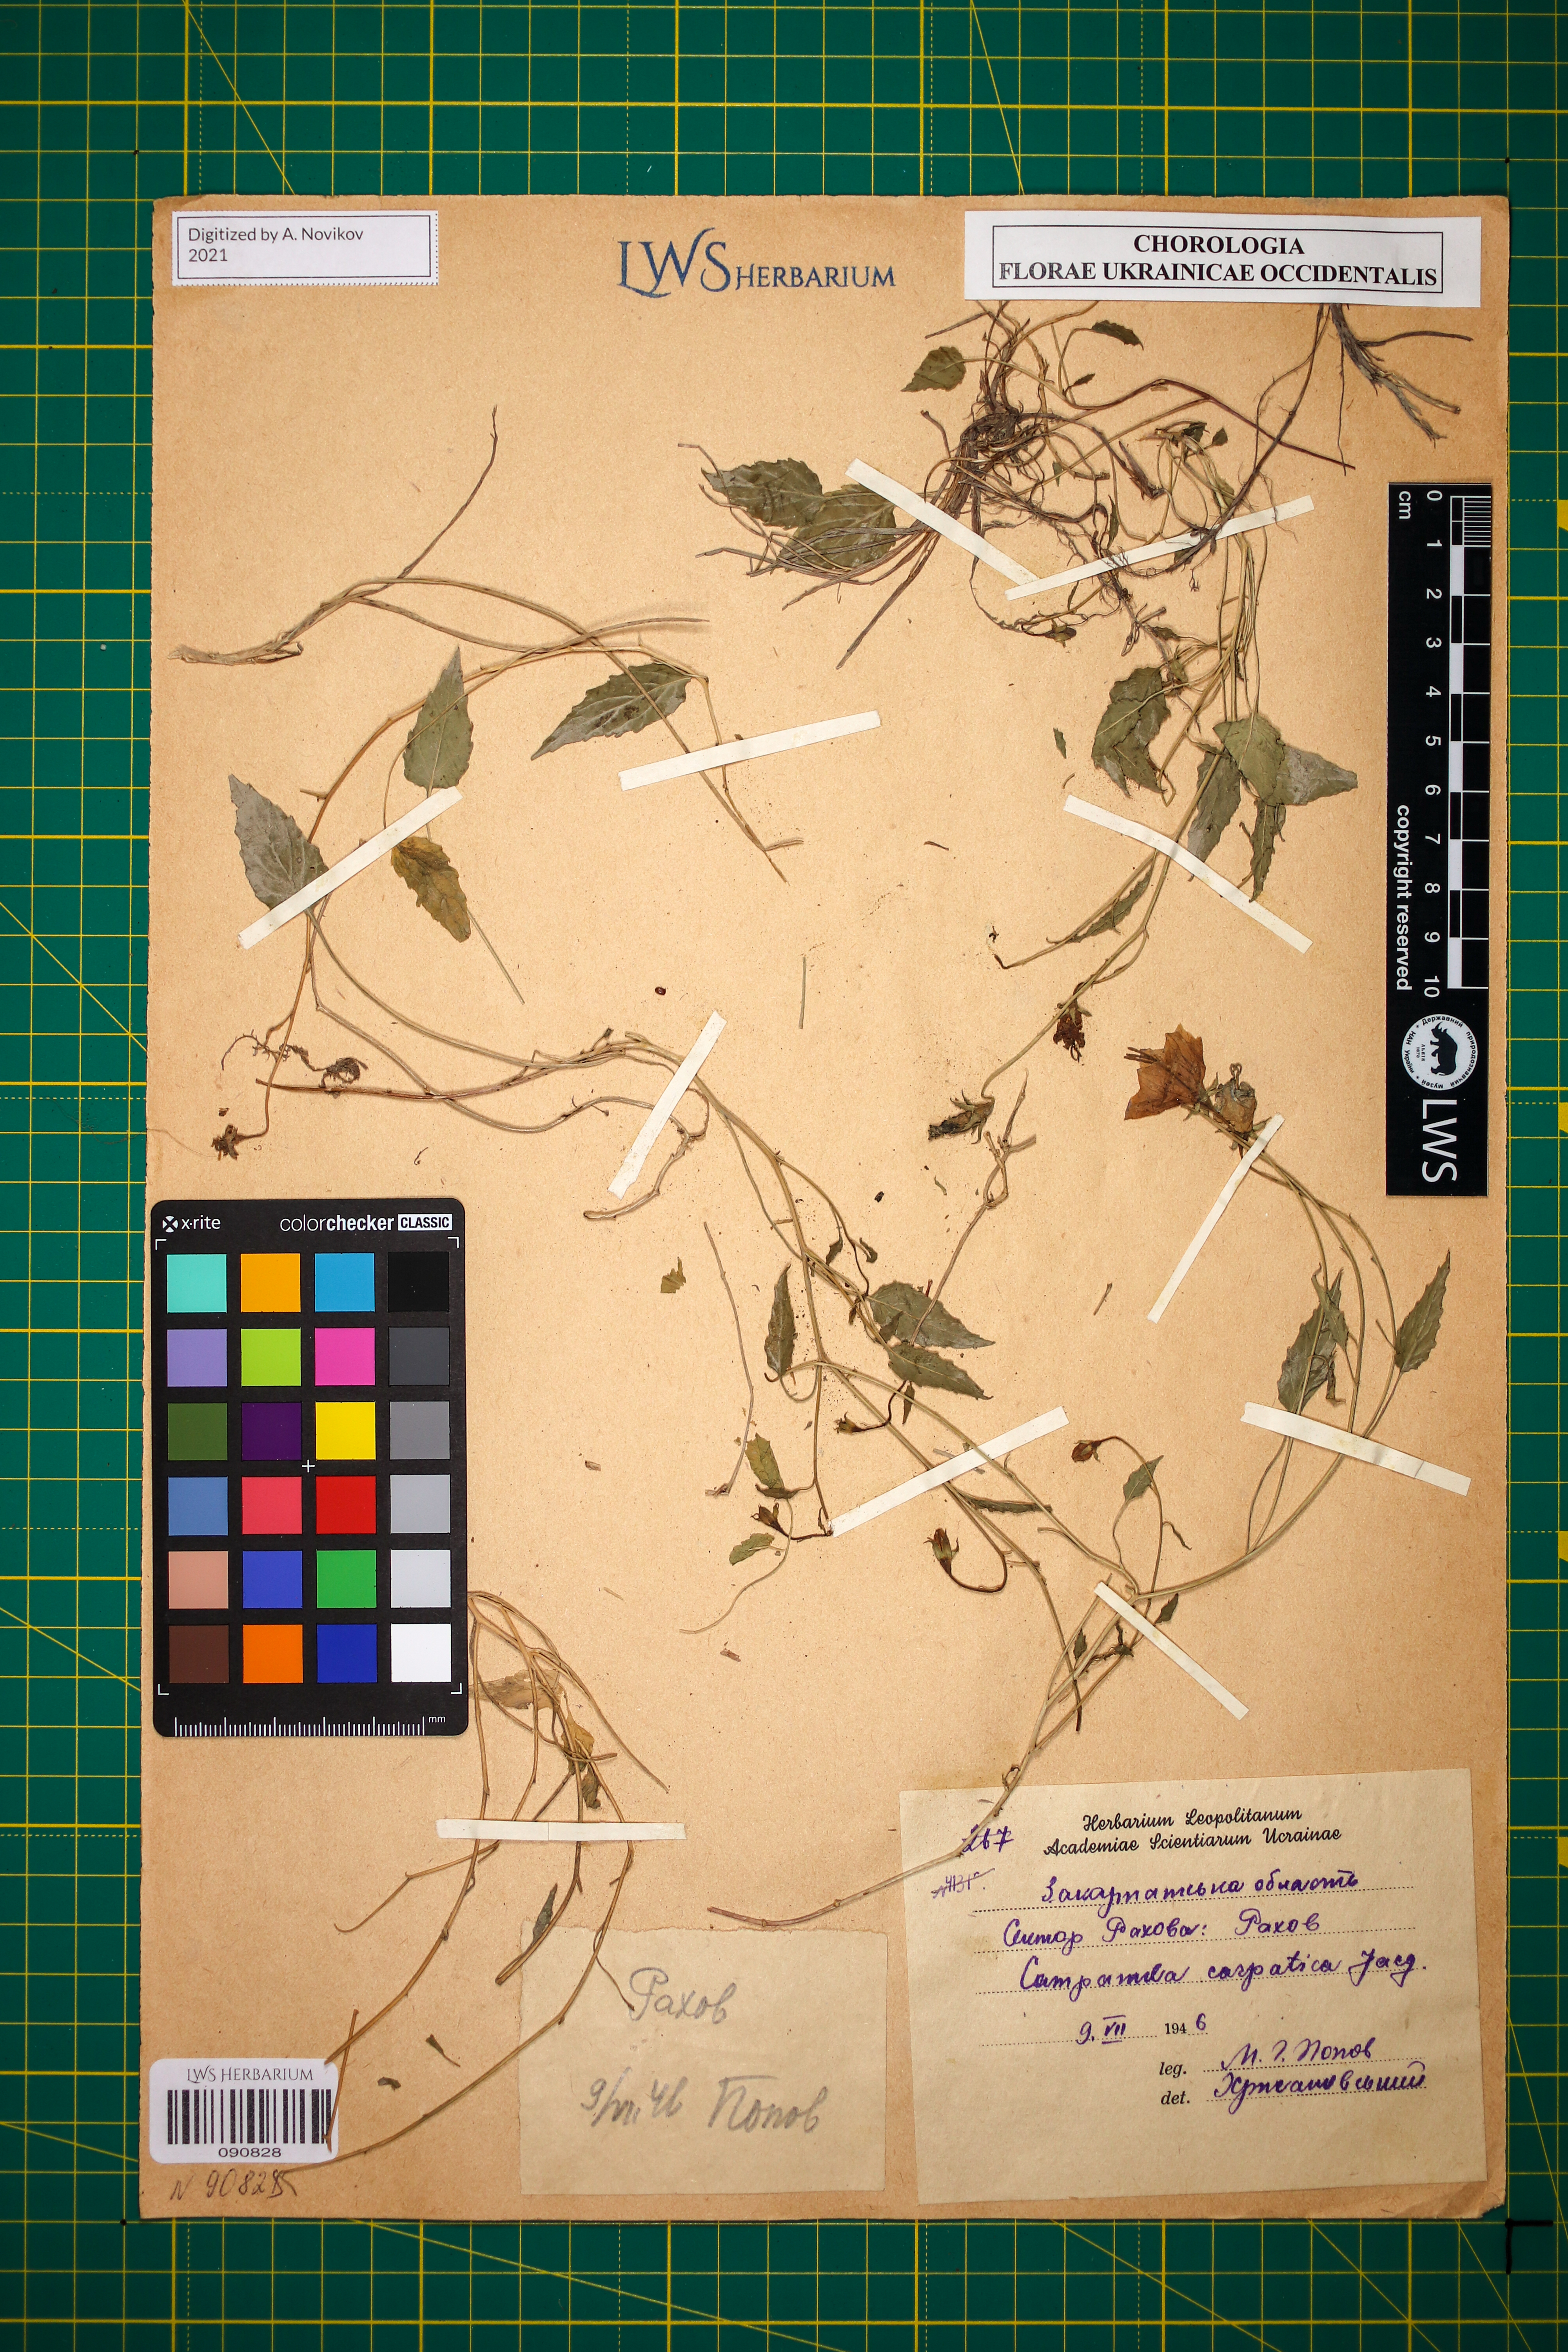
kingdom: Plantae
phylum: Tracheophyta
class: Magnoliopsida
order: Asterales
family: Campanulaceae
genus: Campanula
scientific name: Campanula carpatica
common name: Tussock bellflower
